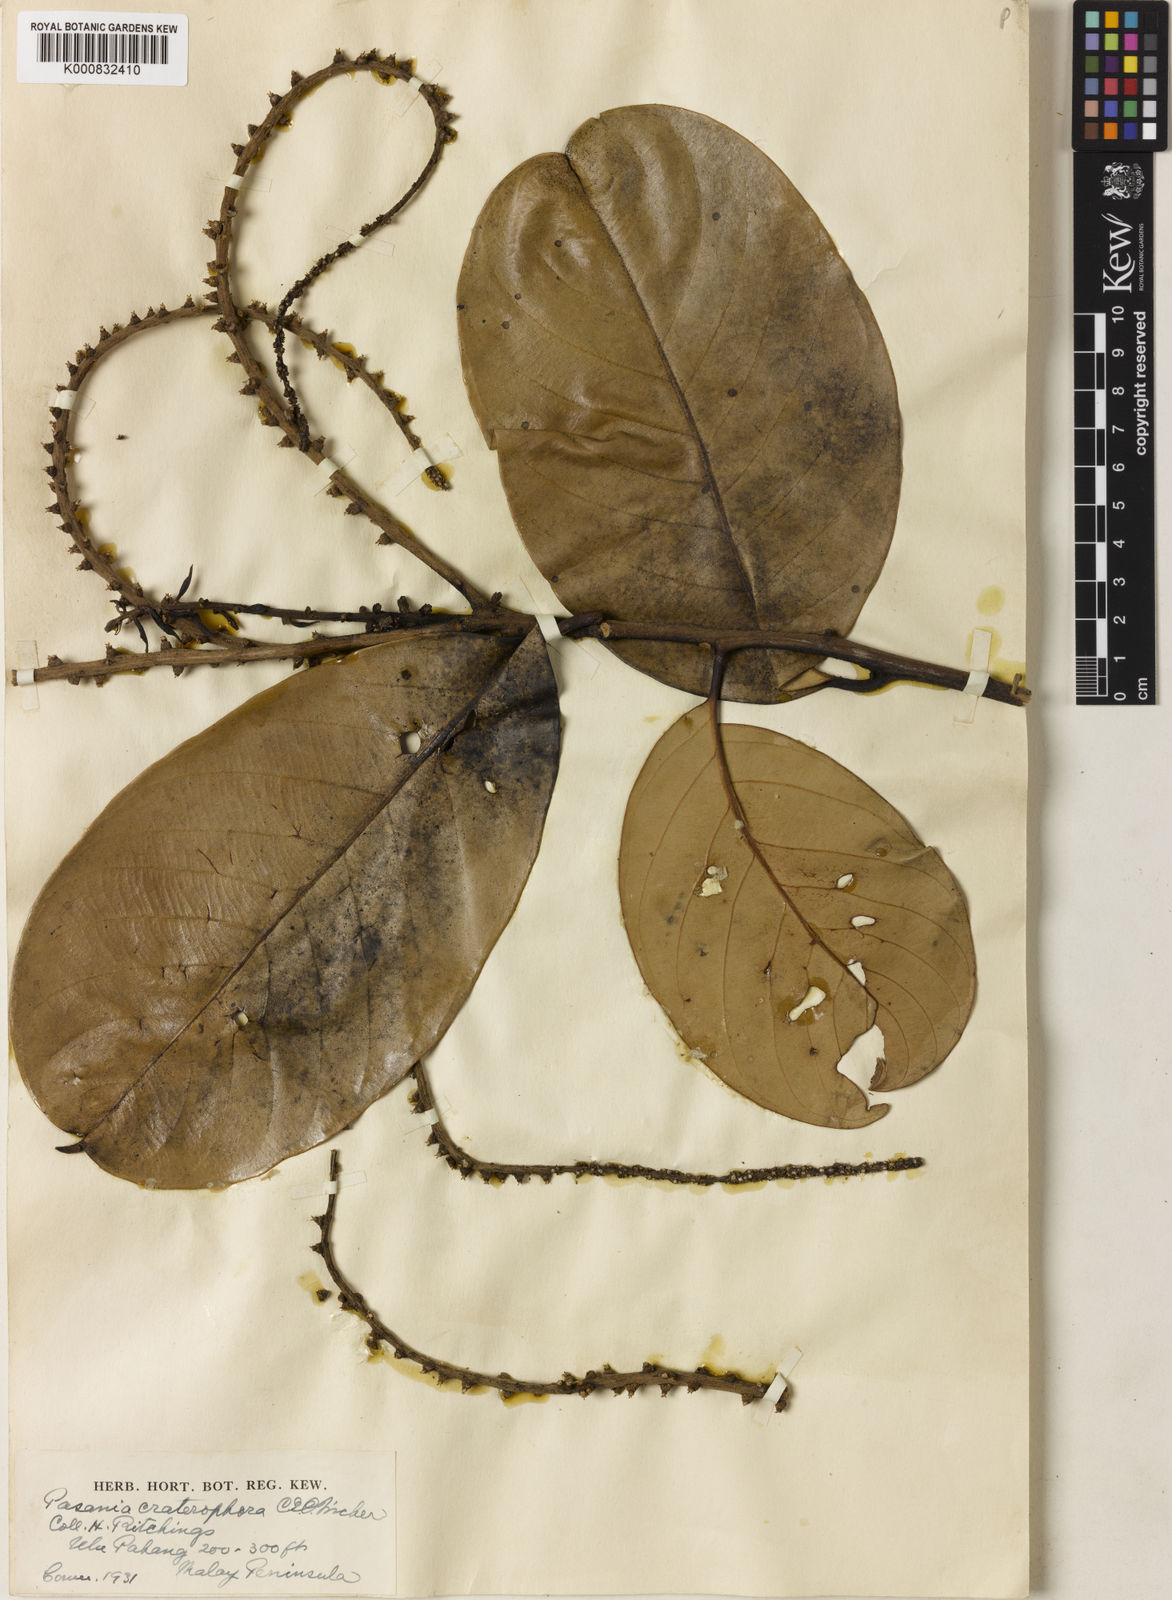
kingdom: Plantae
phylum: Tracheophyta
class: Magnoliopsida
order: Fagales
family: Fagaceae
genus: Lithocarpus
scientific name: Lithocarpus urceolaris
